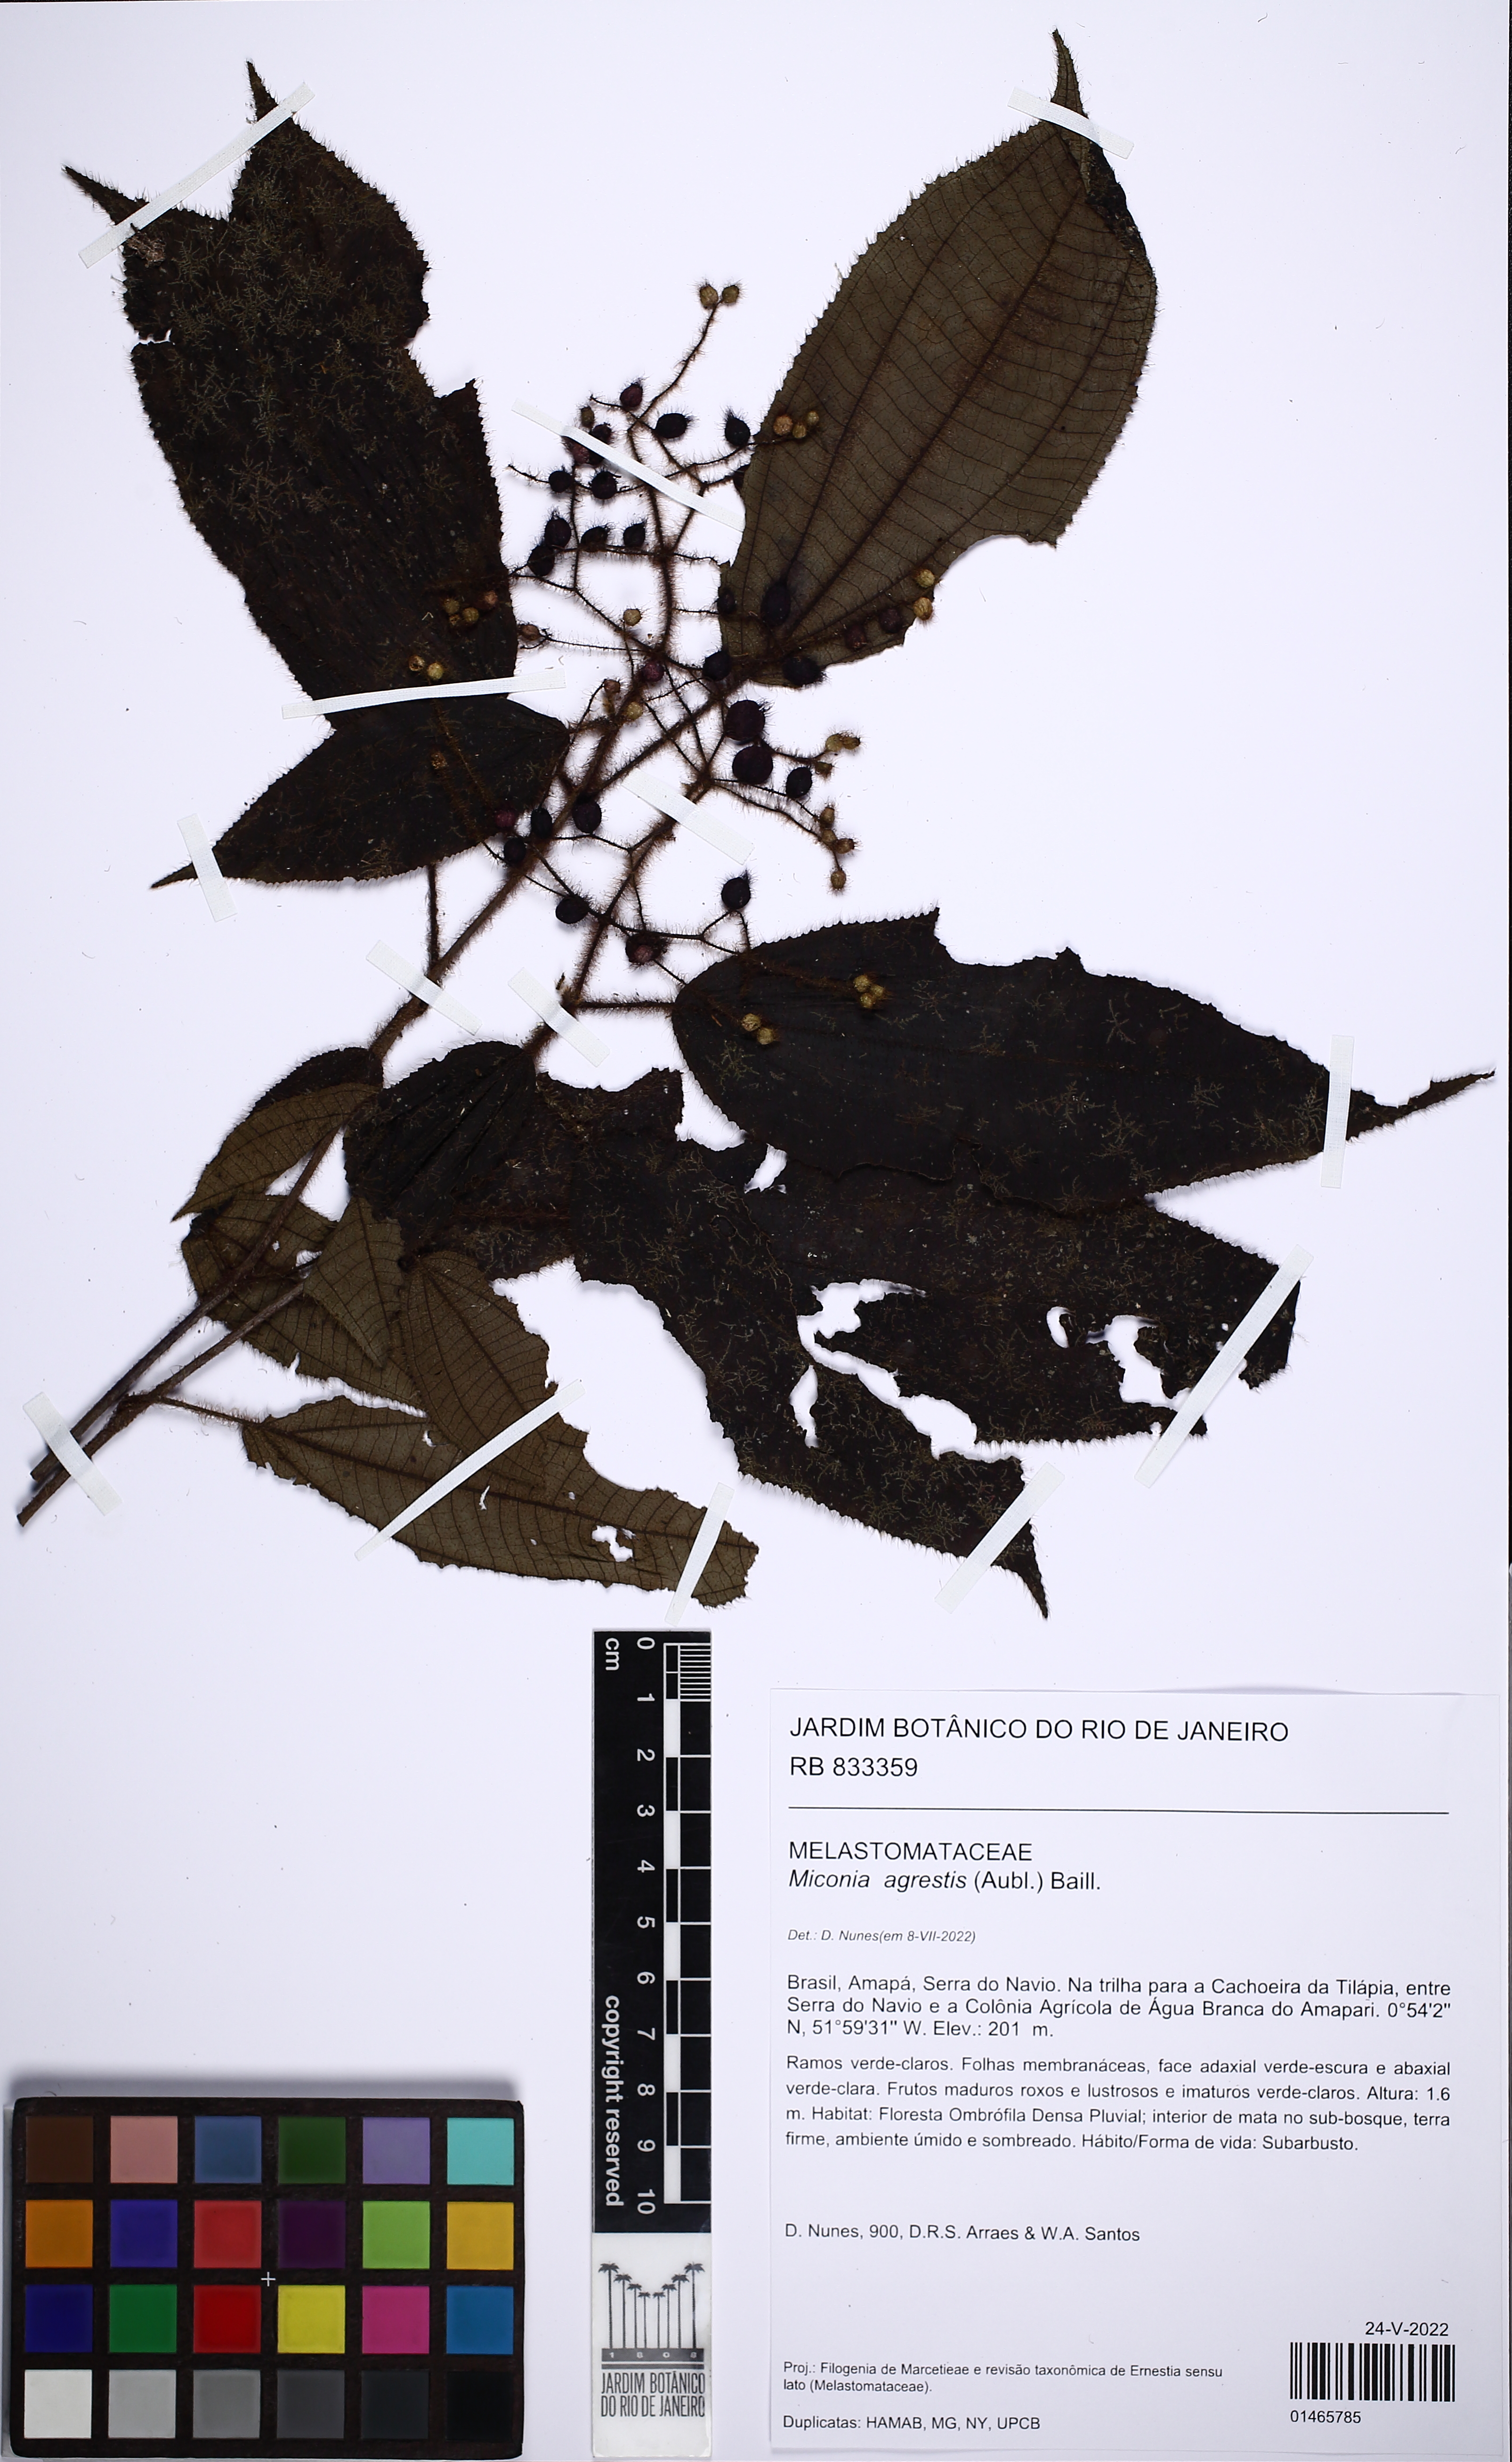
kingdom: Plantae
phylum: Tracheophyta
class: Magnoliopsida
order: Myrtales
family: Melastomataceae
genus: Miconia
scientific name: Miconia agrestis
